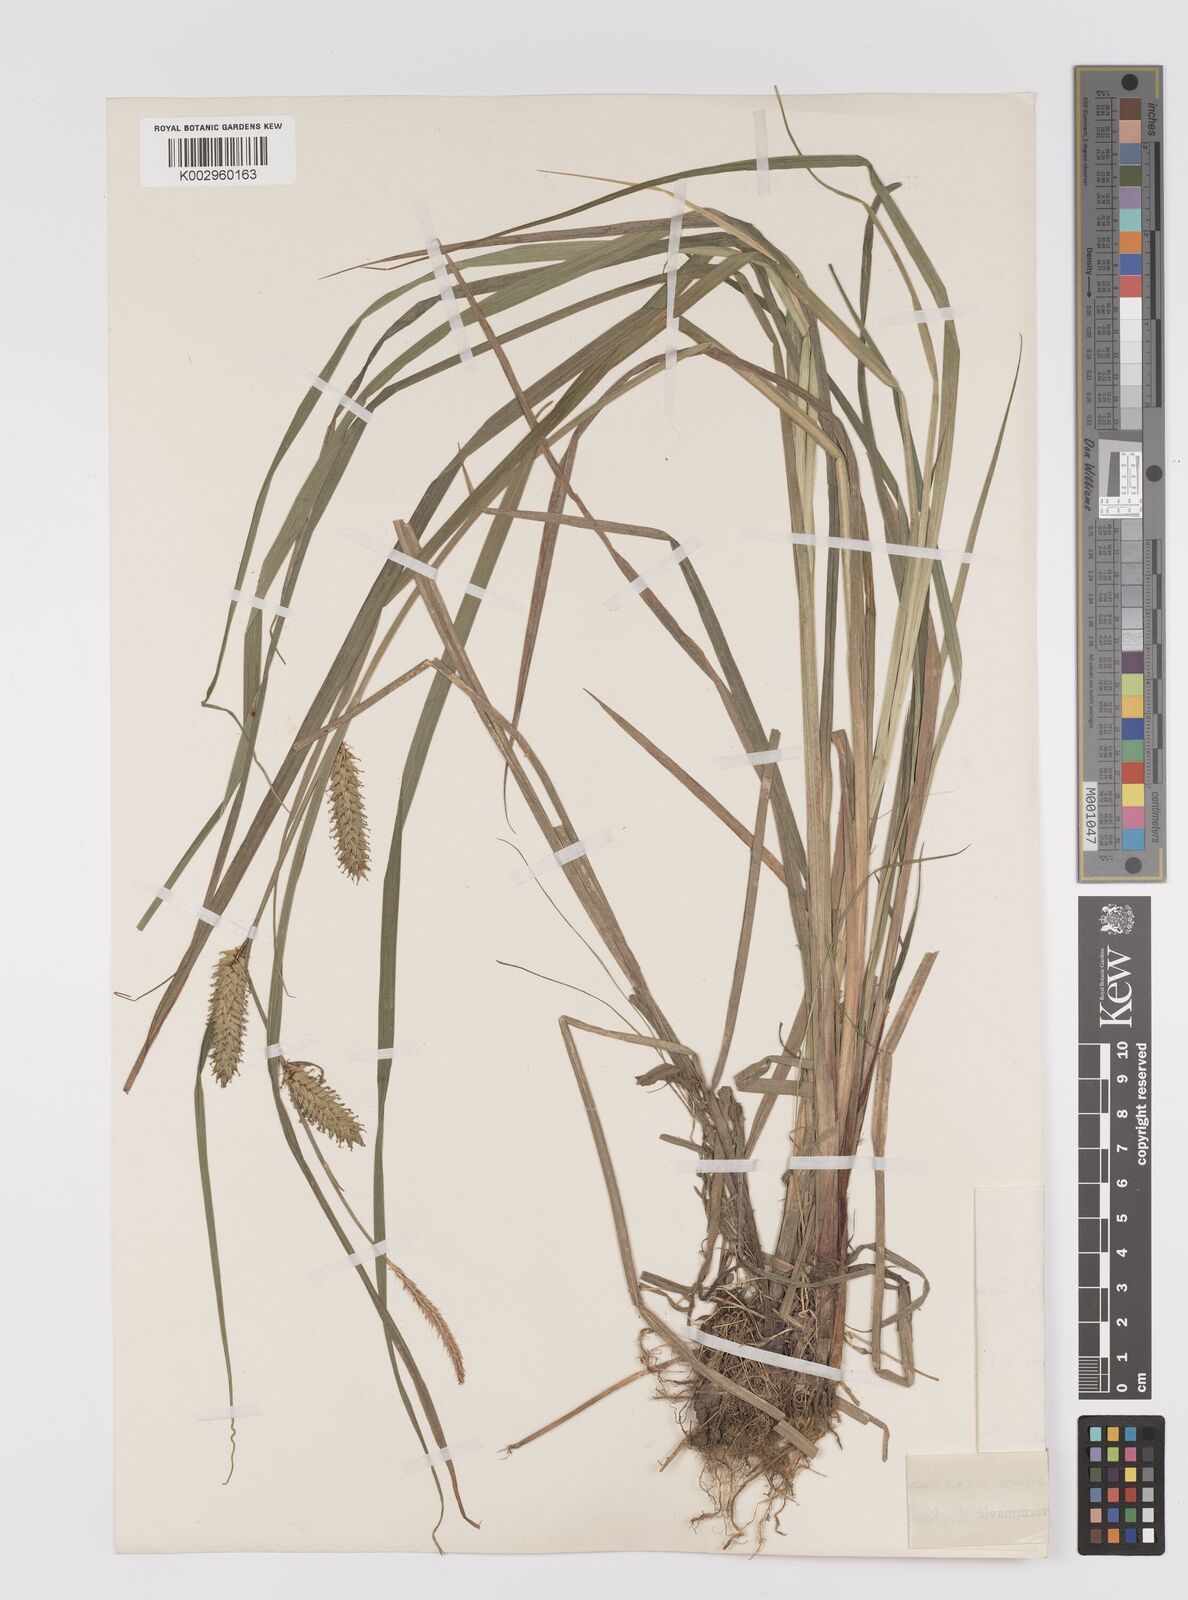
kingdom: Plantae
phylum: Tracheophyta
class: Liliopsida
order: Poales
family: Cyperaceae
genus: Carex
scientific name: Carex vesicaria
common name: Bladder-sedge
